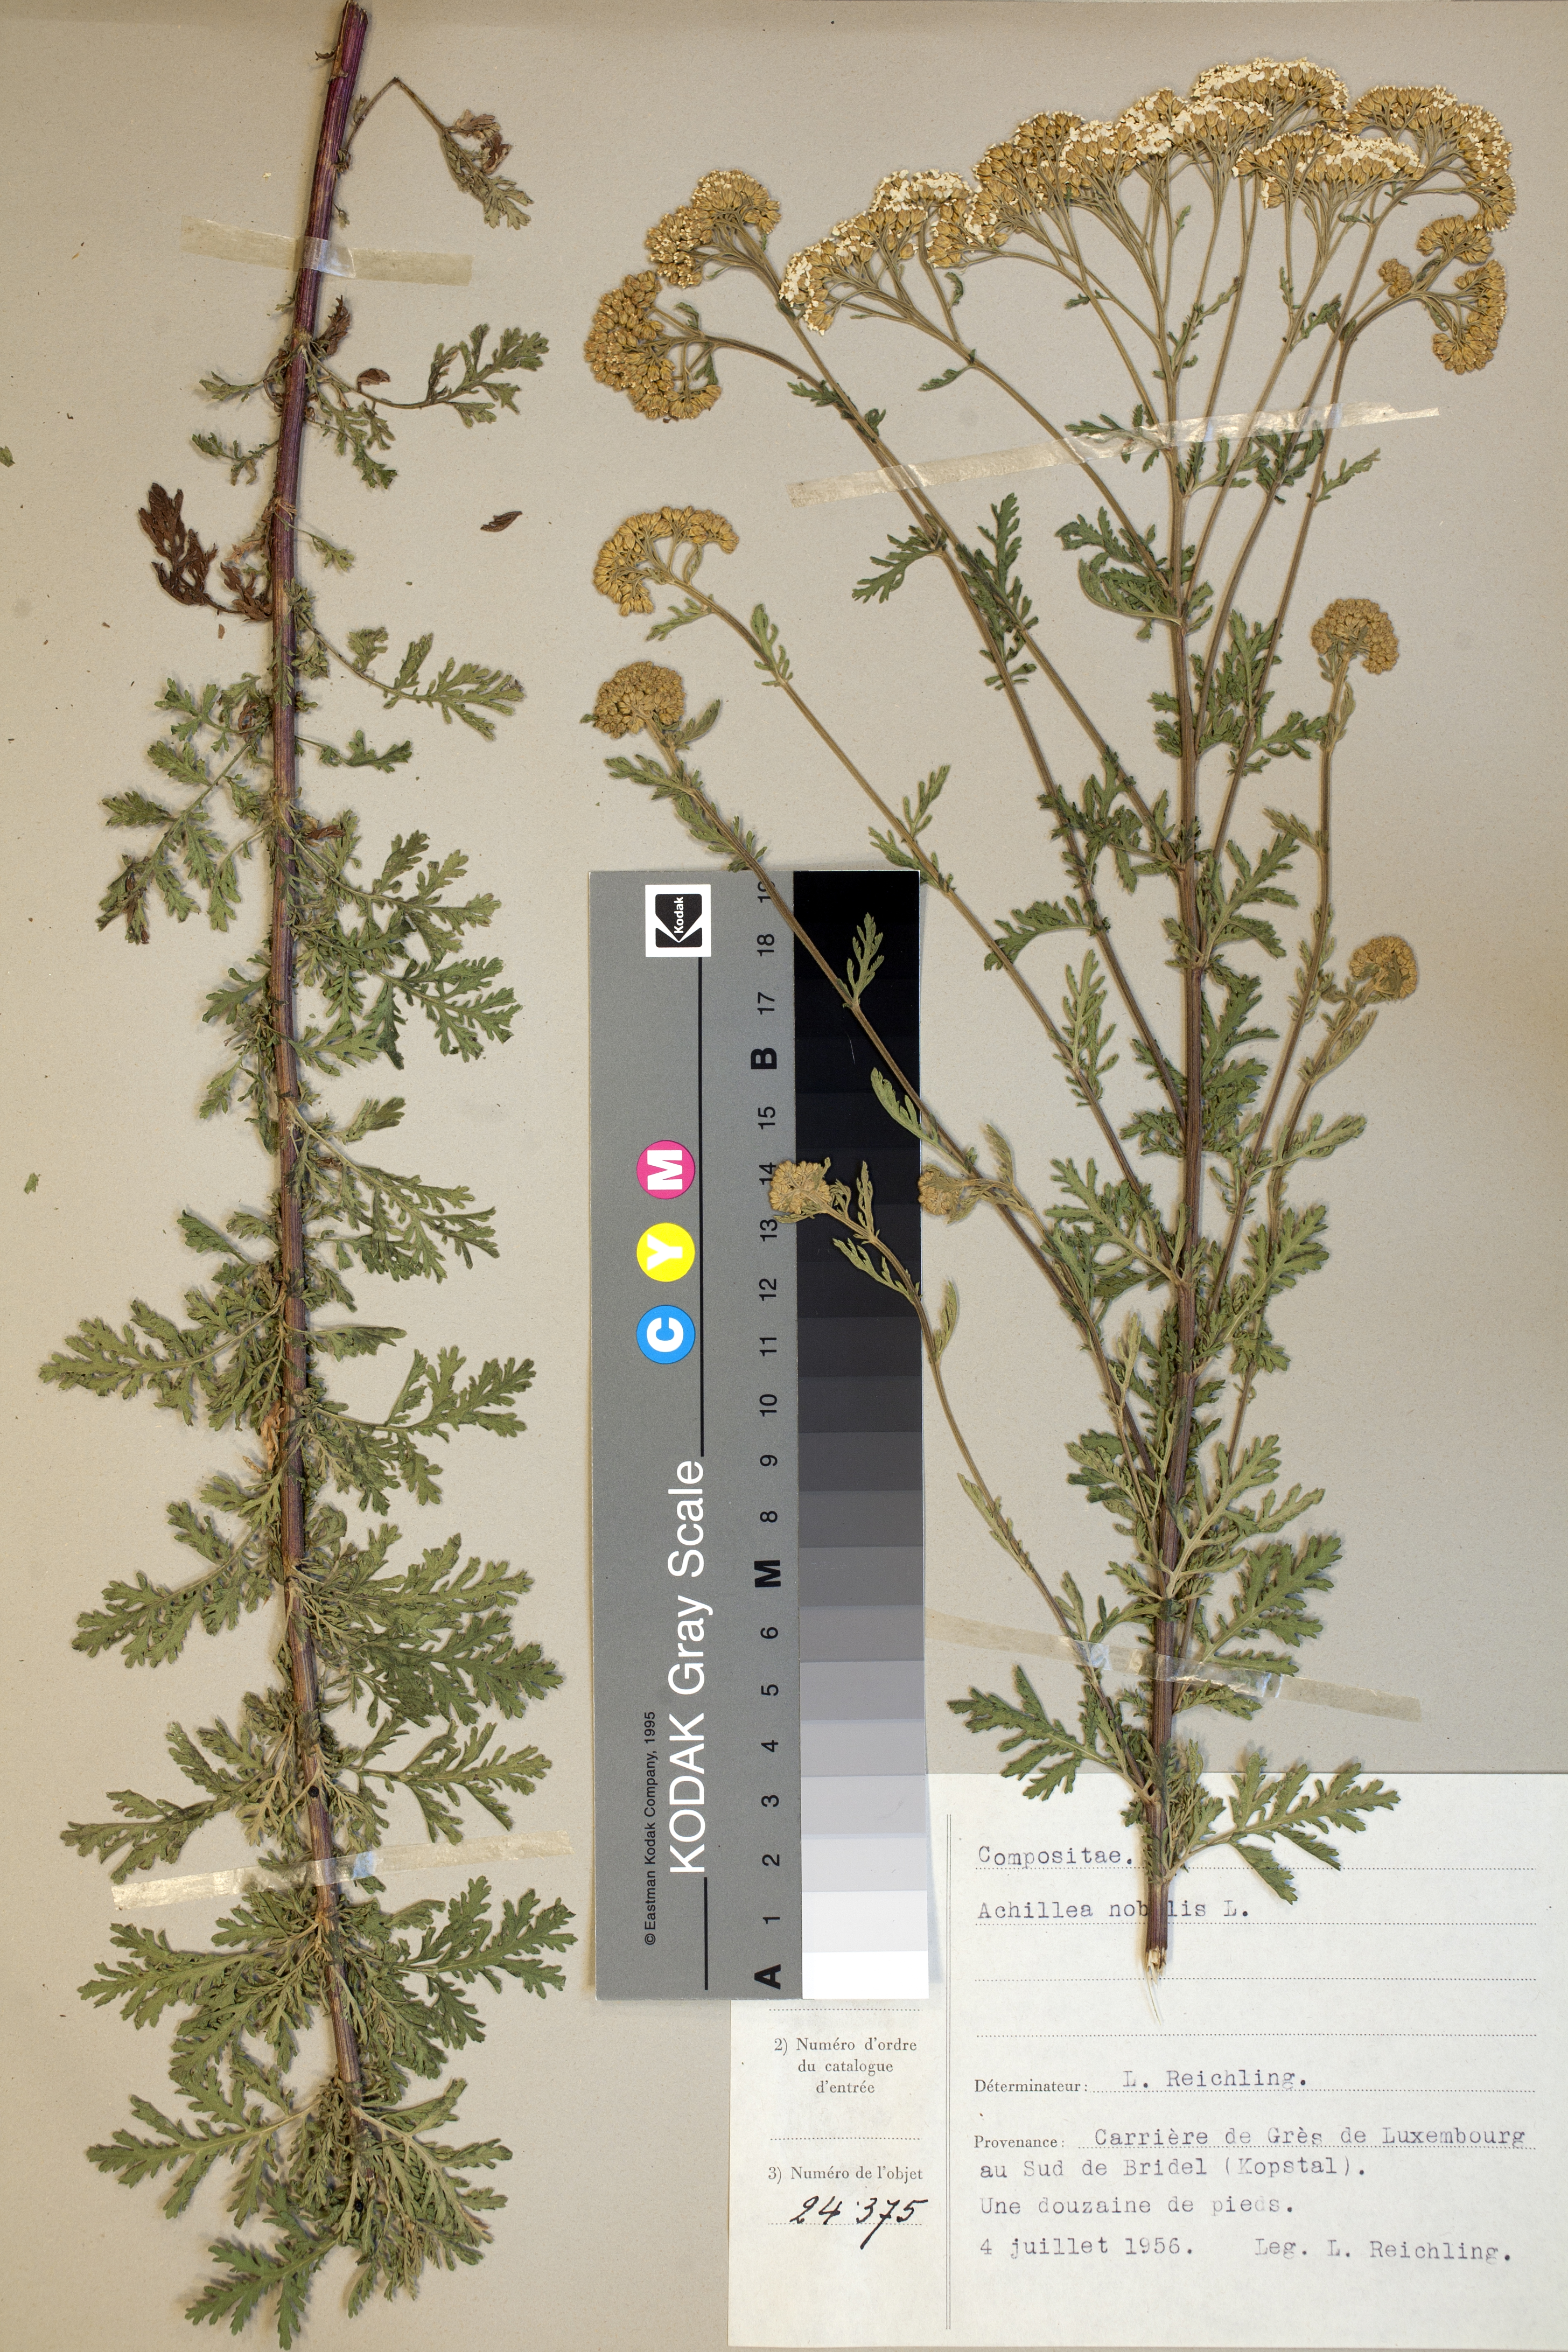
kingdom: Plantae
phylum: Tracheophyta
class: Magnoliopsida
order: Asterales
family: Asteraceae
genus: Achillea
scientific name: Achillea nobilis
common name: Noble yarrow
